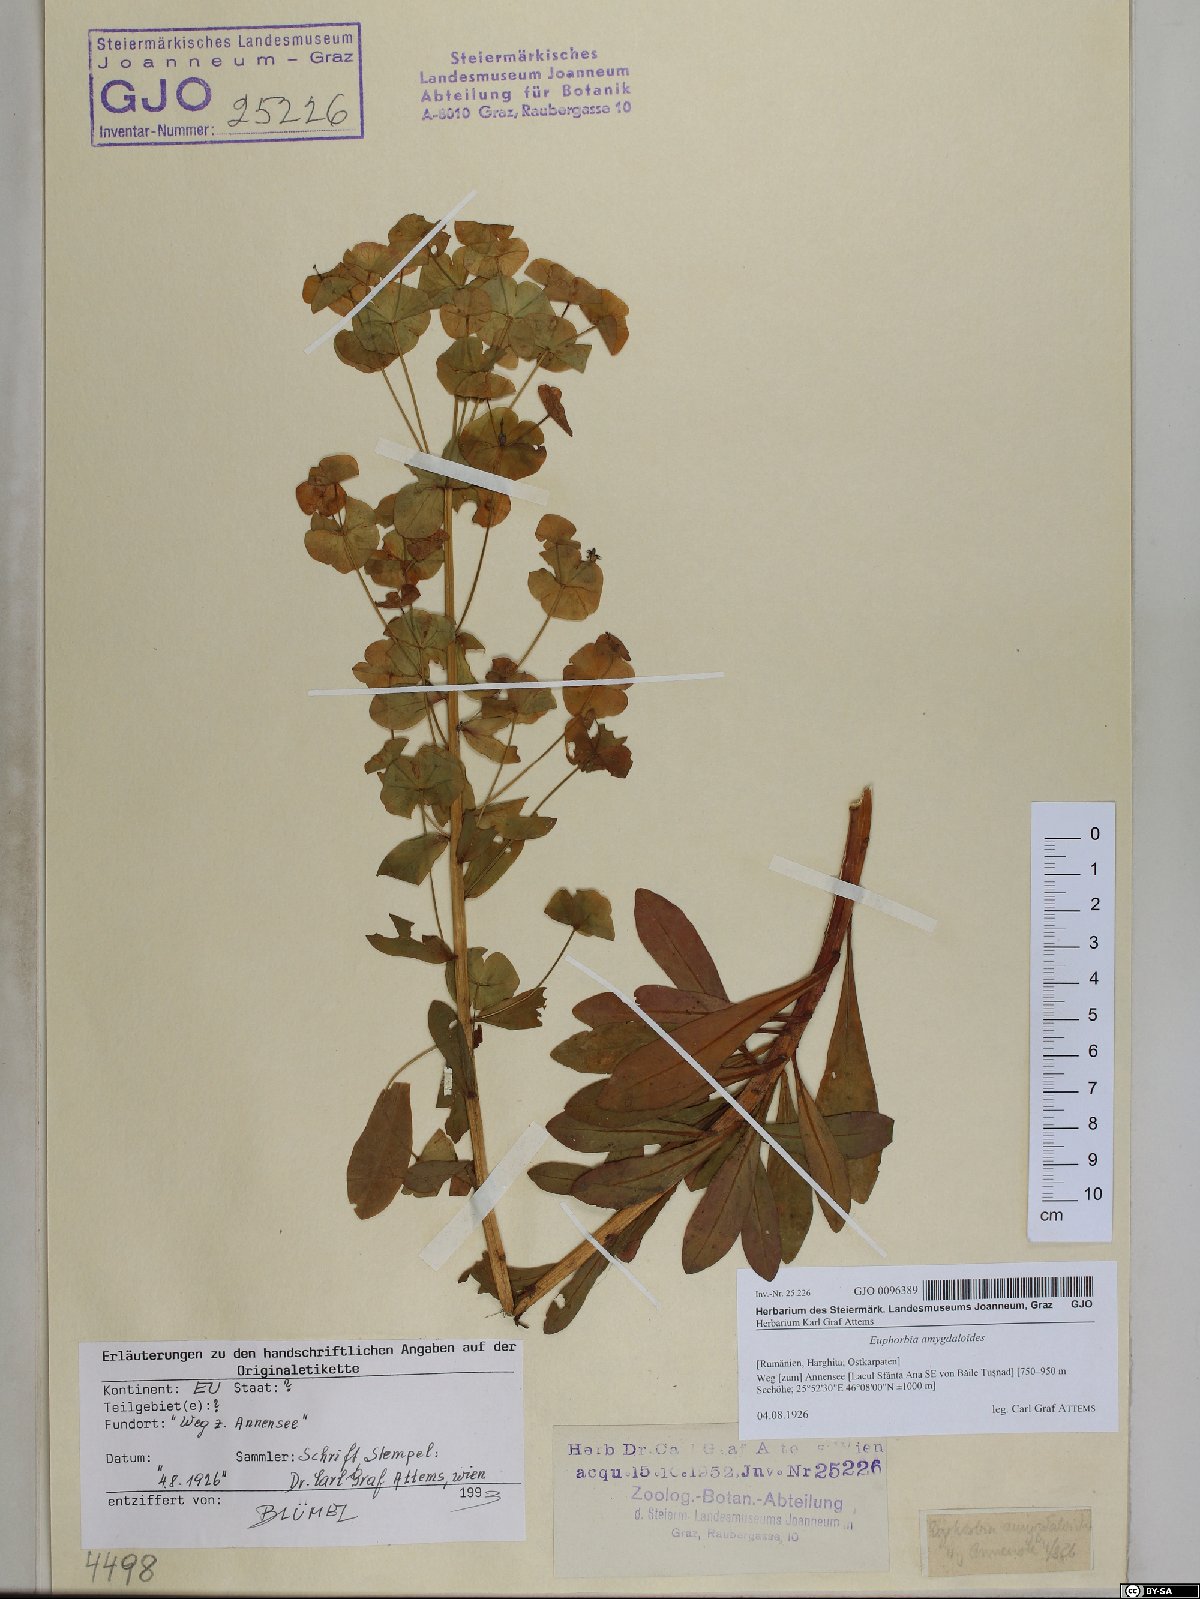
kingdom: Plantae
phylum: Tracheophyta
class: Magnoliopsida
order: Malpighiales
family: Euphorbiaceae
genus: Euphorbia
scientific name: Euphorbia amygdaloides
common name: Wood spurge
